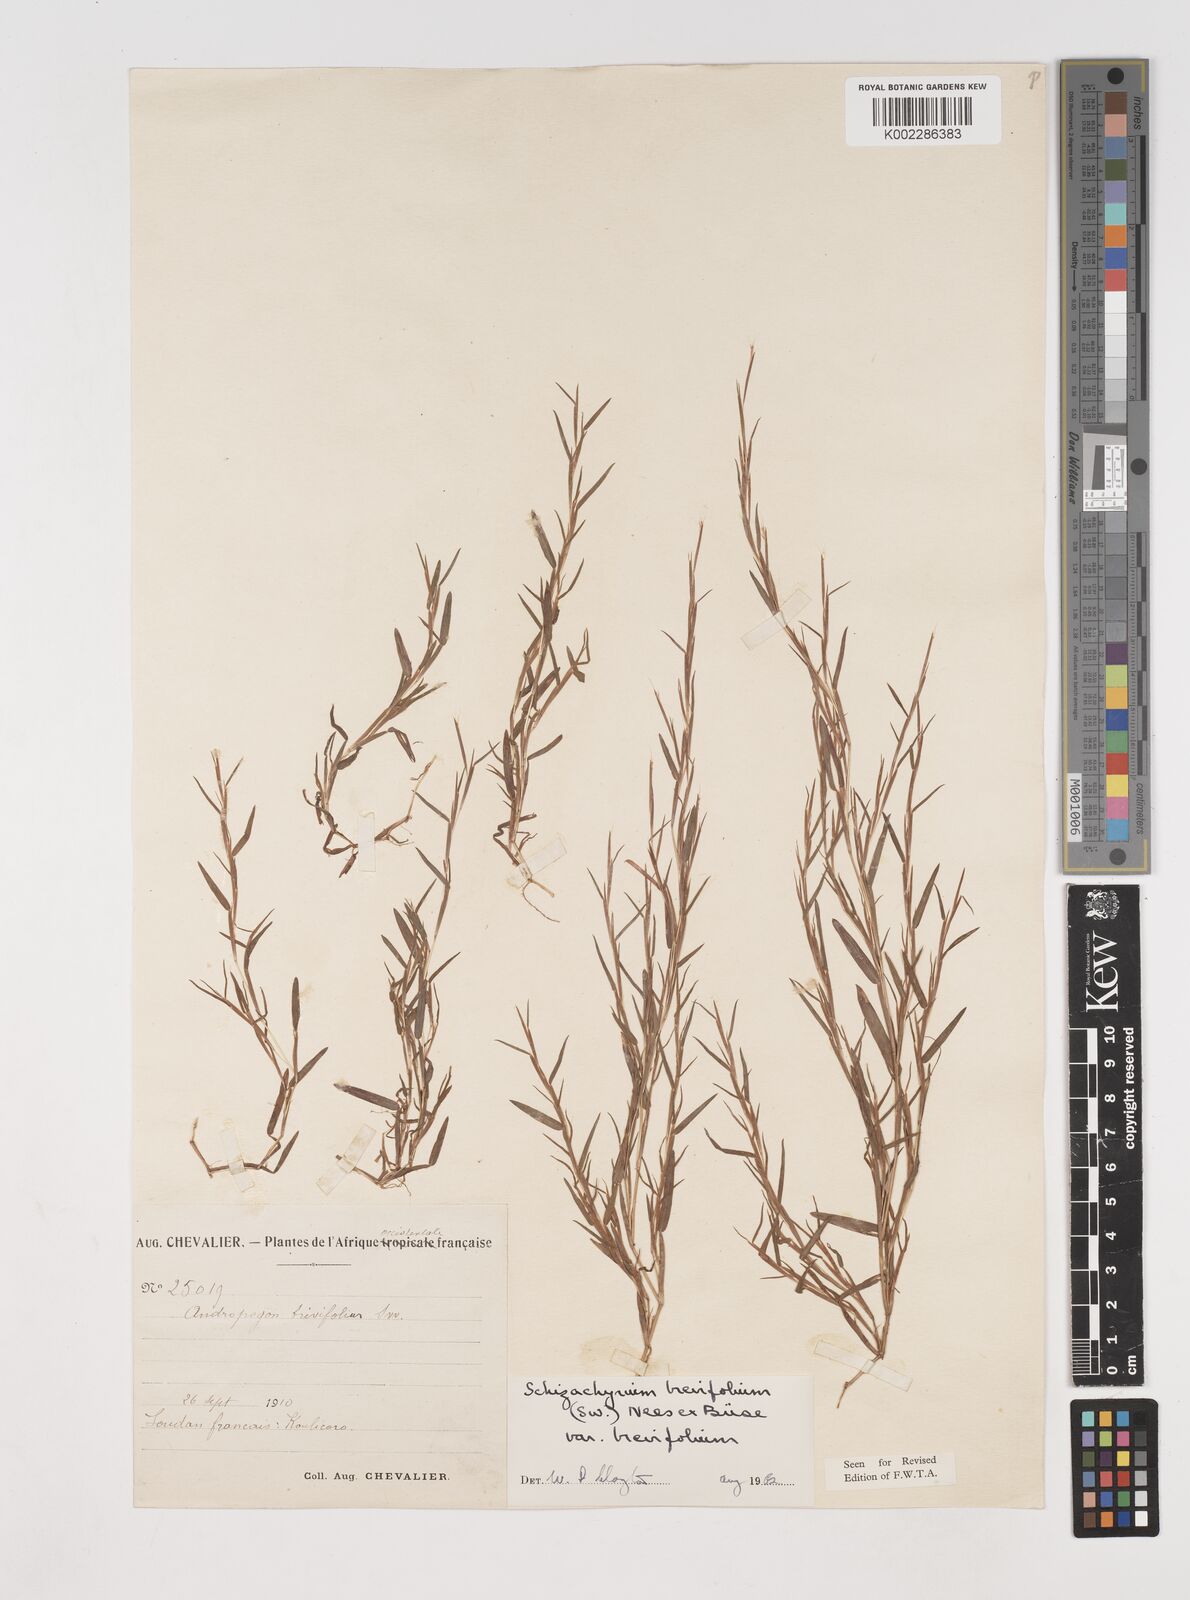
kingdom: Plantae
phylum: Tracheophyta
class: Liliopsida
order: Poales
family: Poaceae
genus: Schizachyrium
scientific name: Schizachyrium brevifolium
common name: Serillo dulce
